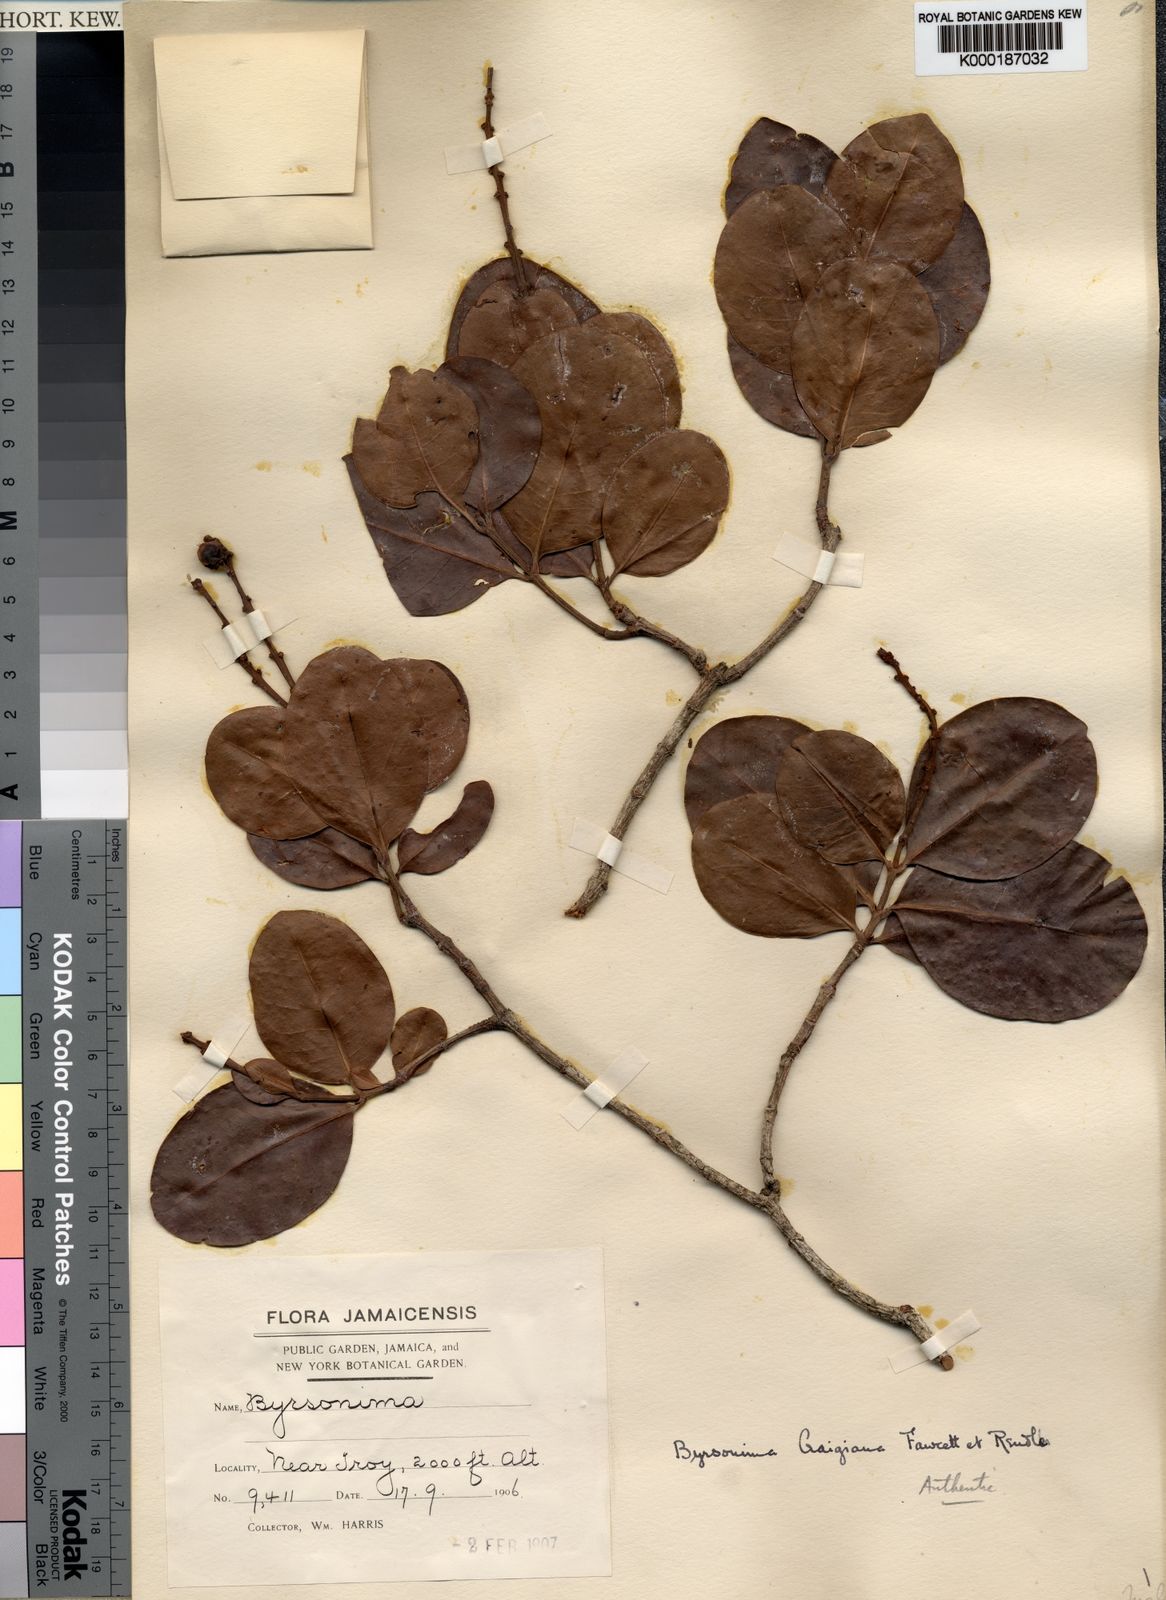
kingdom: Plantae
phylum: Tracheophyta
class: Magnoliopsida
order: Malpighiales
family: Malpighiaceae
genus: Byrsonima
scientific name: Byrsonima trinitensis
